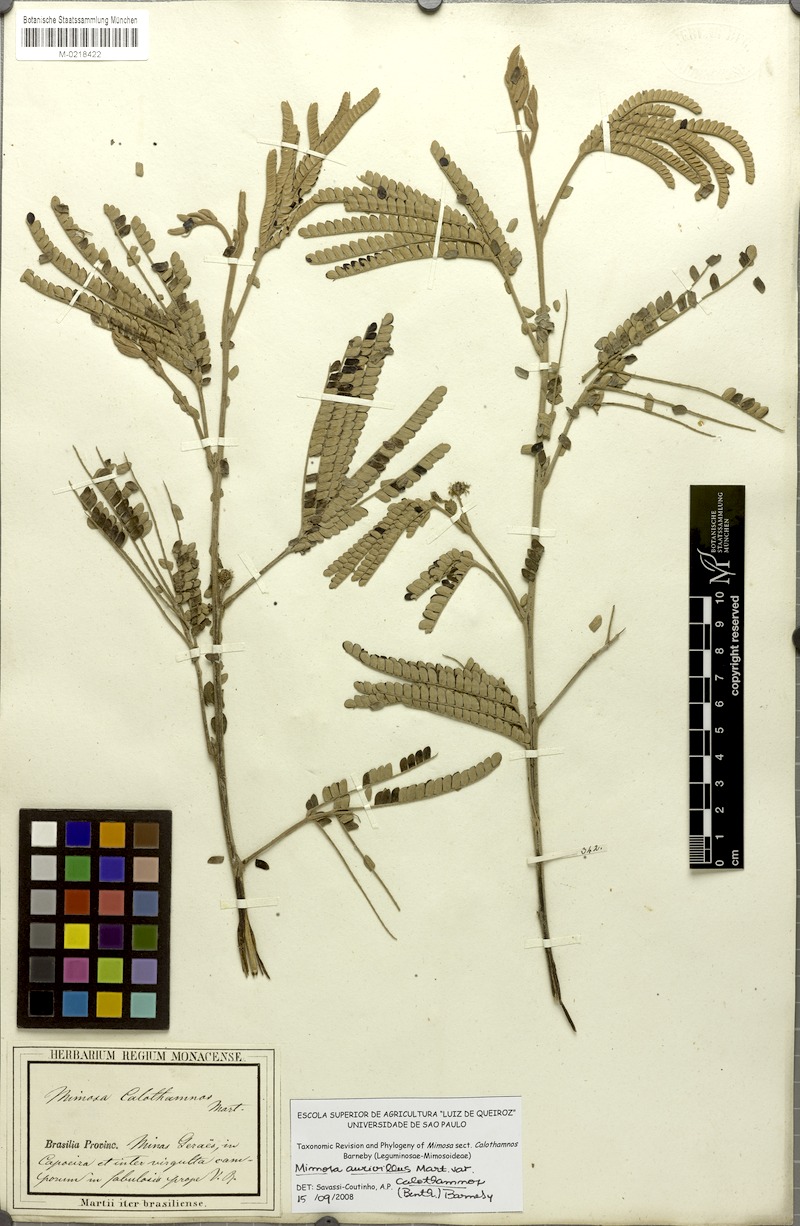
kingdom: Plantae
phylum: Tracheophyta
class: Magnoliopsida
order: Fabales
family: Fabaceae
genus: Mimosa
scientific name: Mimosa aurivillus
